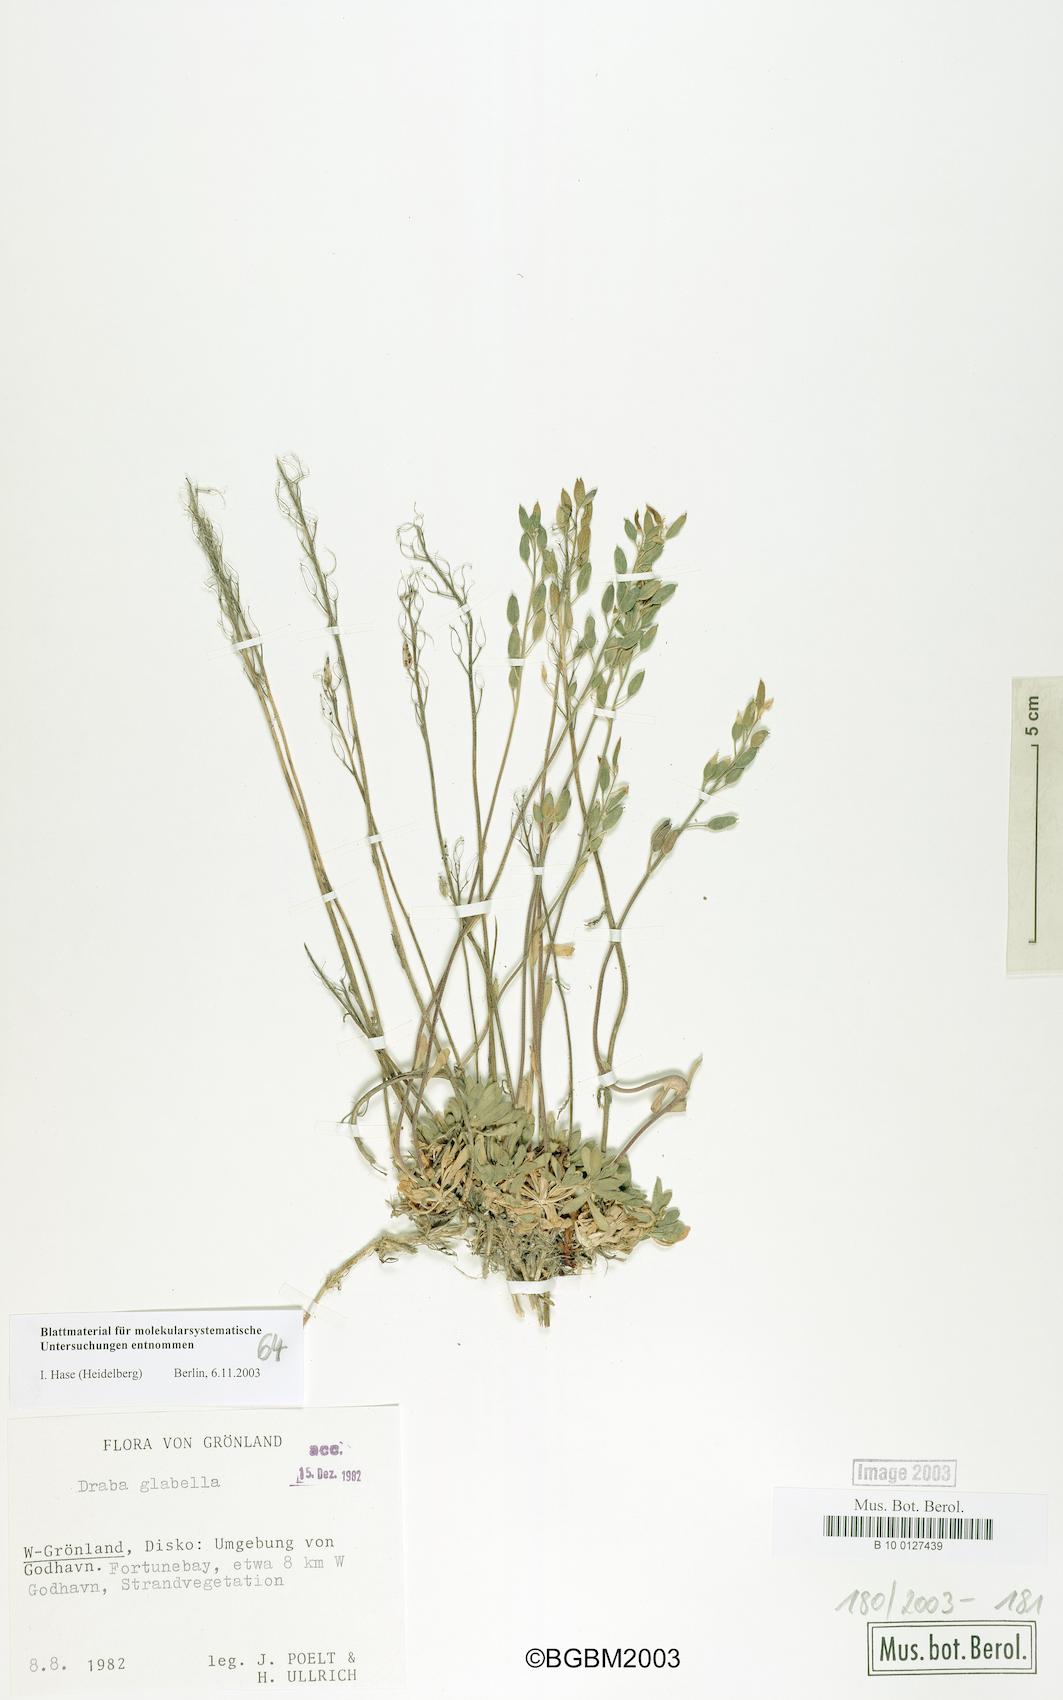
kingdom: Plantae
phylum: Tracheophyta
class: Magnoliopsida
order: Brassicales
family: Brassicaceae
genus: Draba
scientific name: Draba glabella
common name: Glaucous draba
